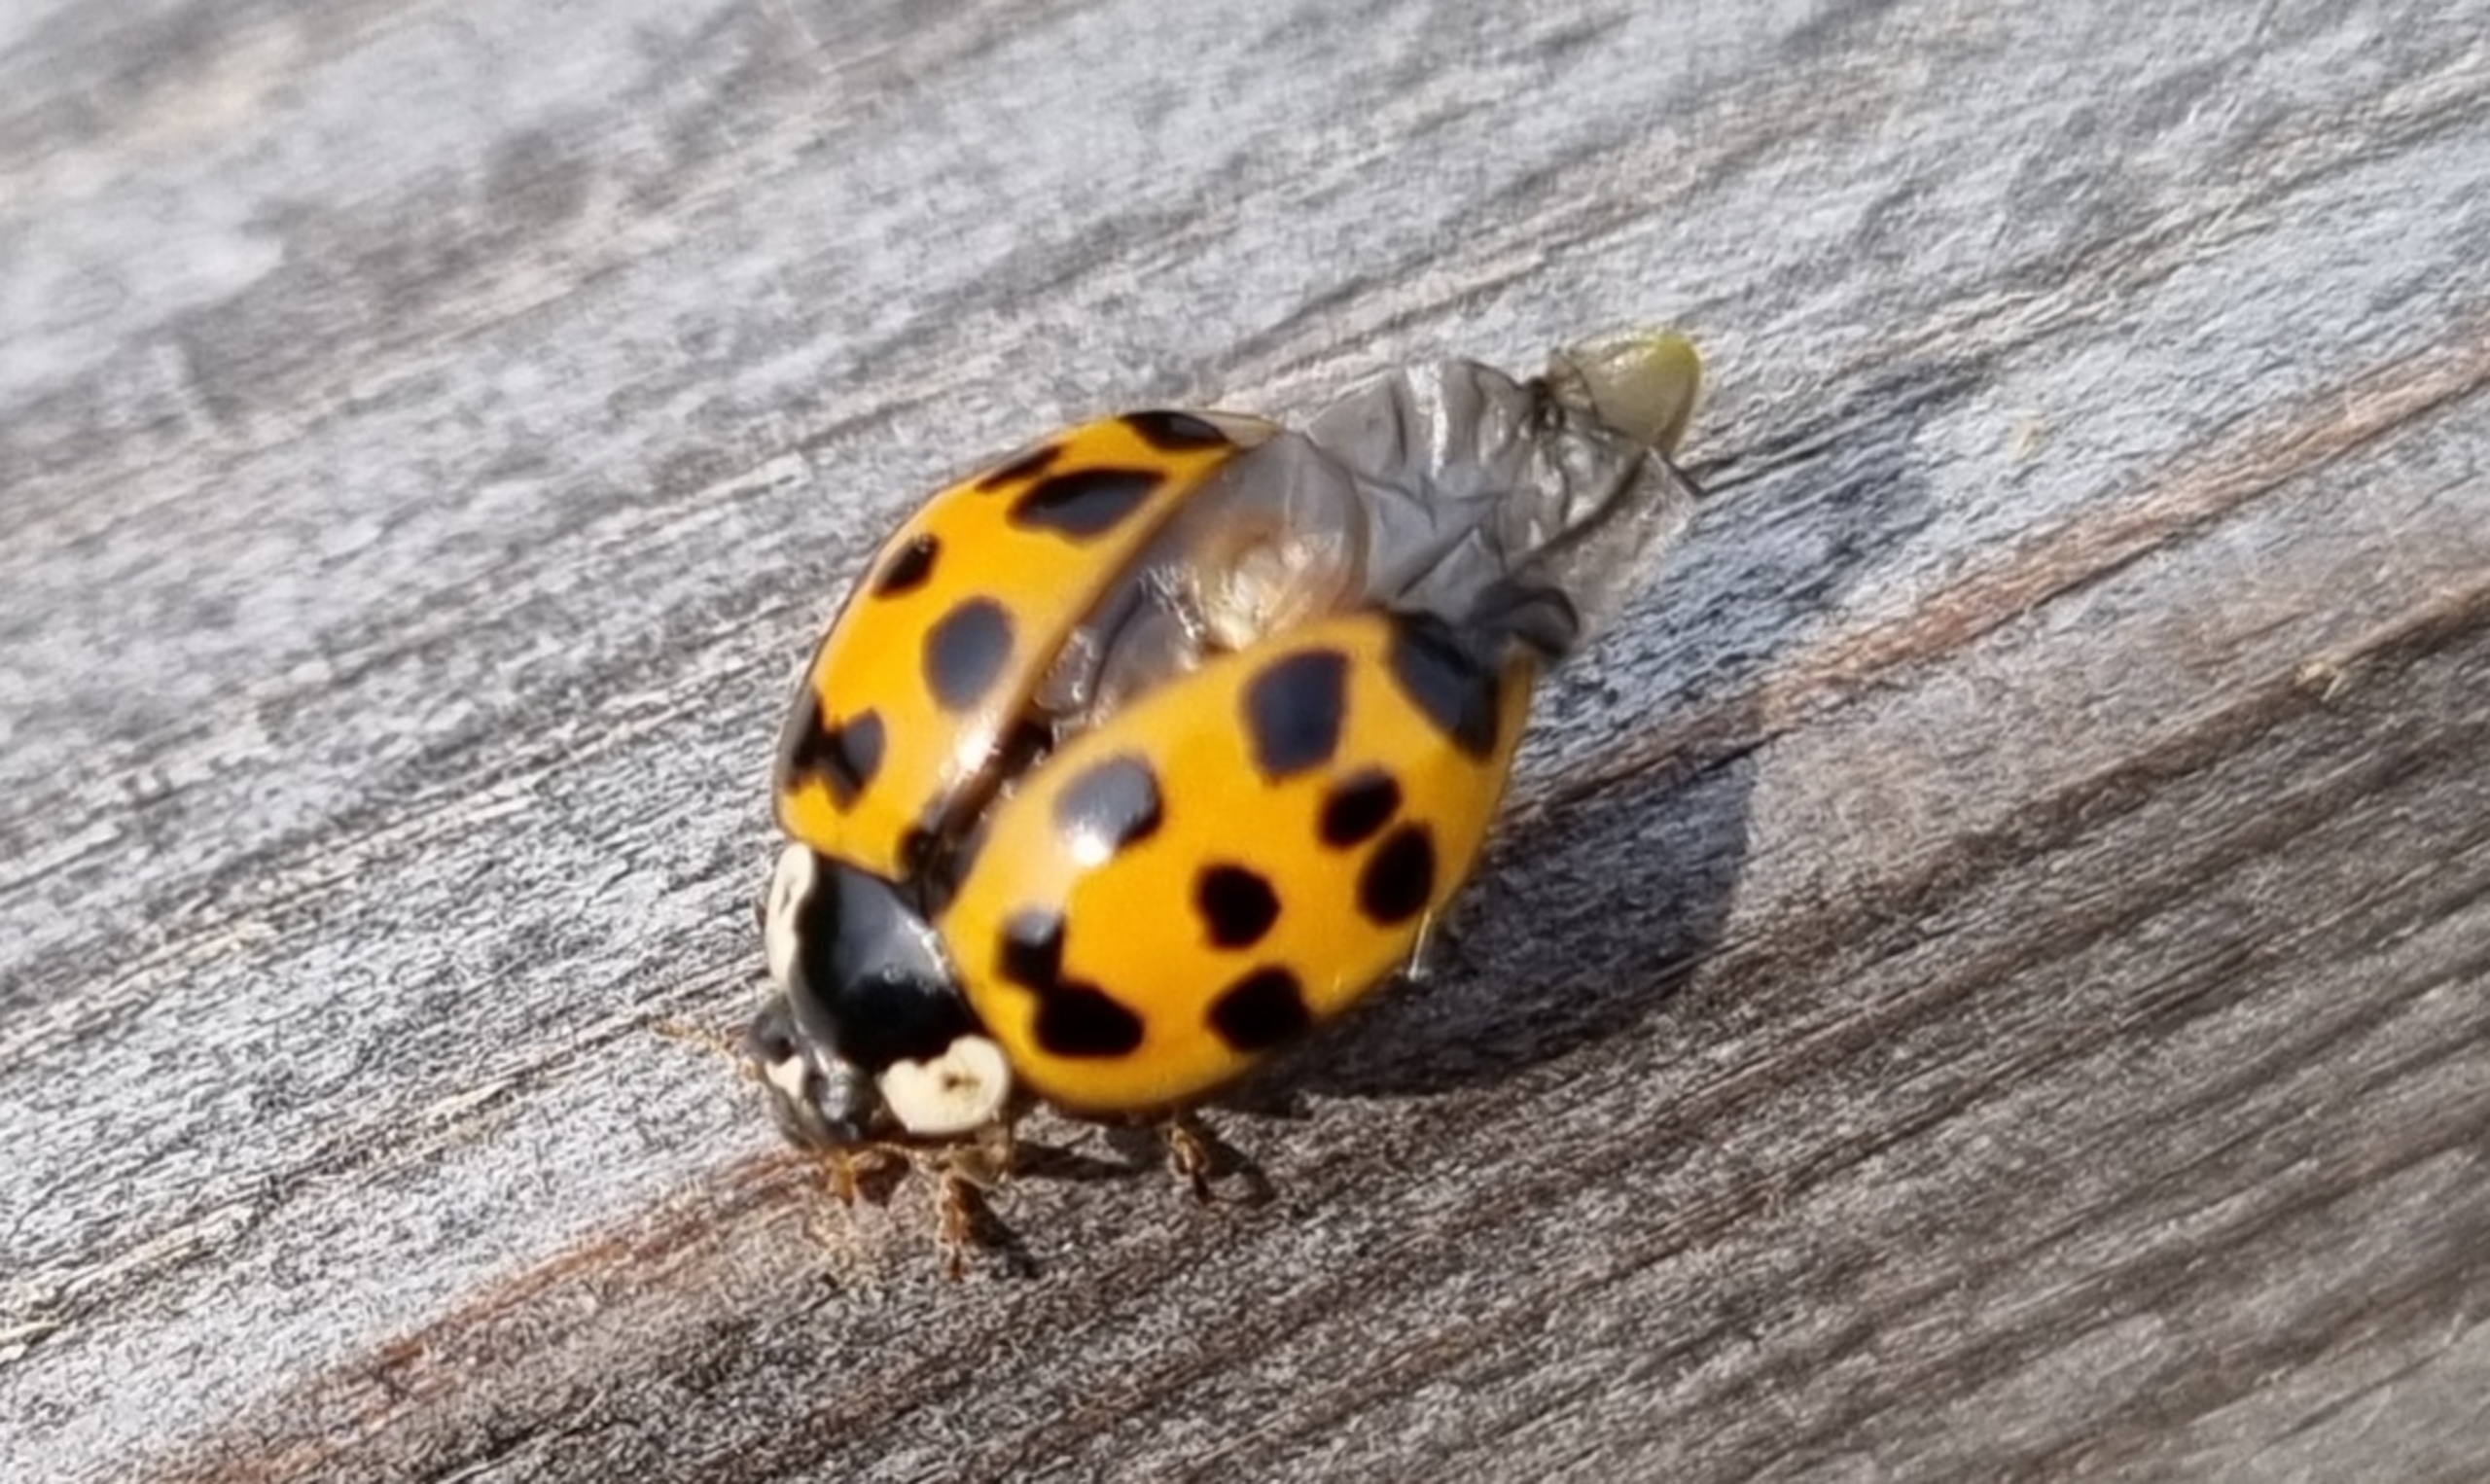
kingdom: Animalia
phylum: Arthropoda
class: Insecta
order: Coleoptera
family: Coccinellidae
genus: Harmonia
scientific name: Harmonia axyridis
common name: Harlekinmariehøne
